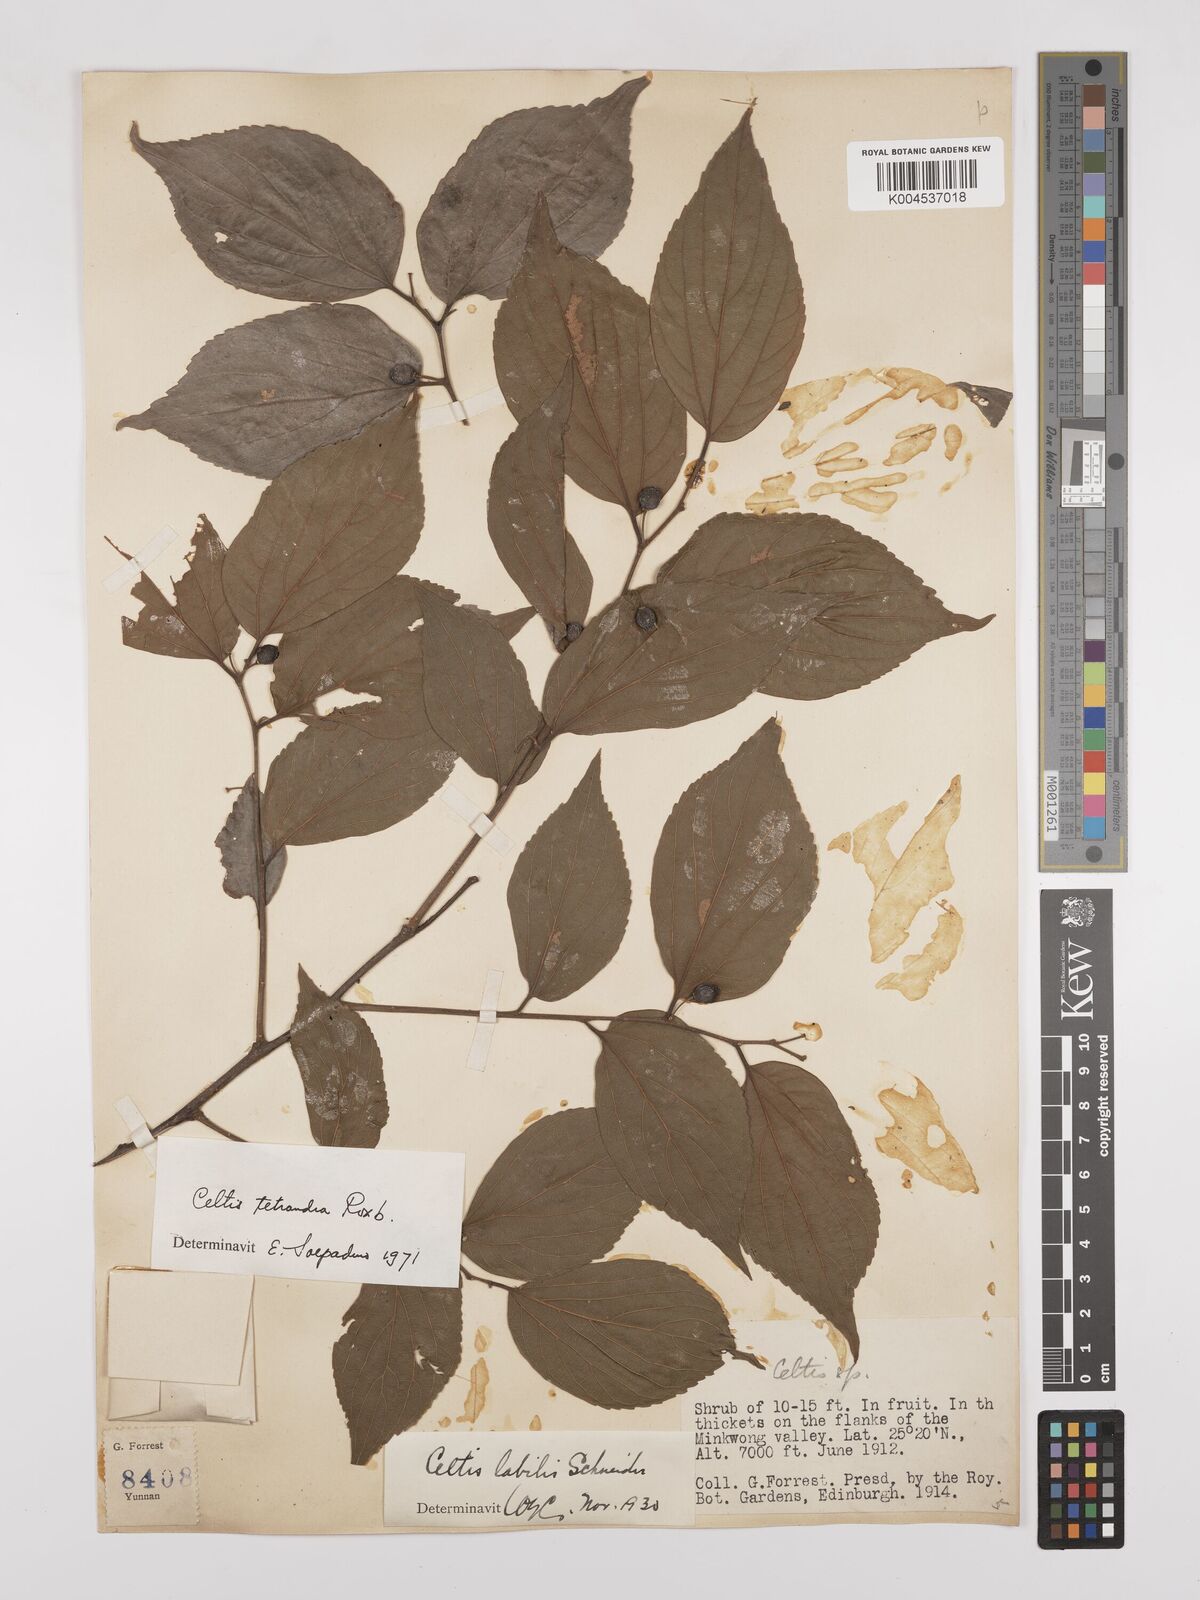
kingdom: Plantae
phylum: Tracheophyta
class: Magnoliopsida
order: Rosales
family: Cannabaceae
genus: Celtis
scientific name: Celtis tetrandra
